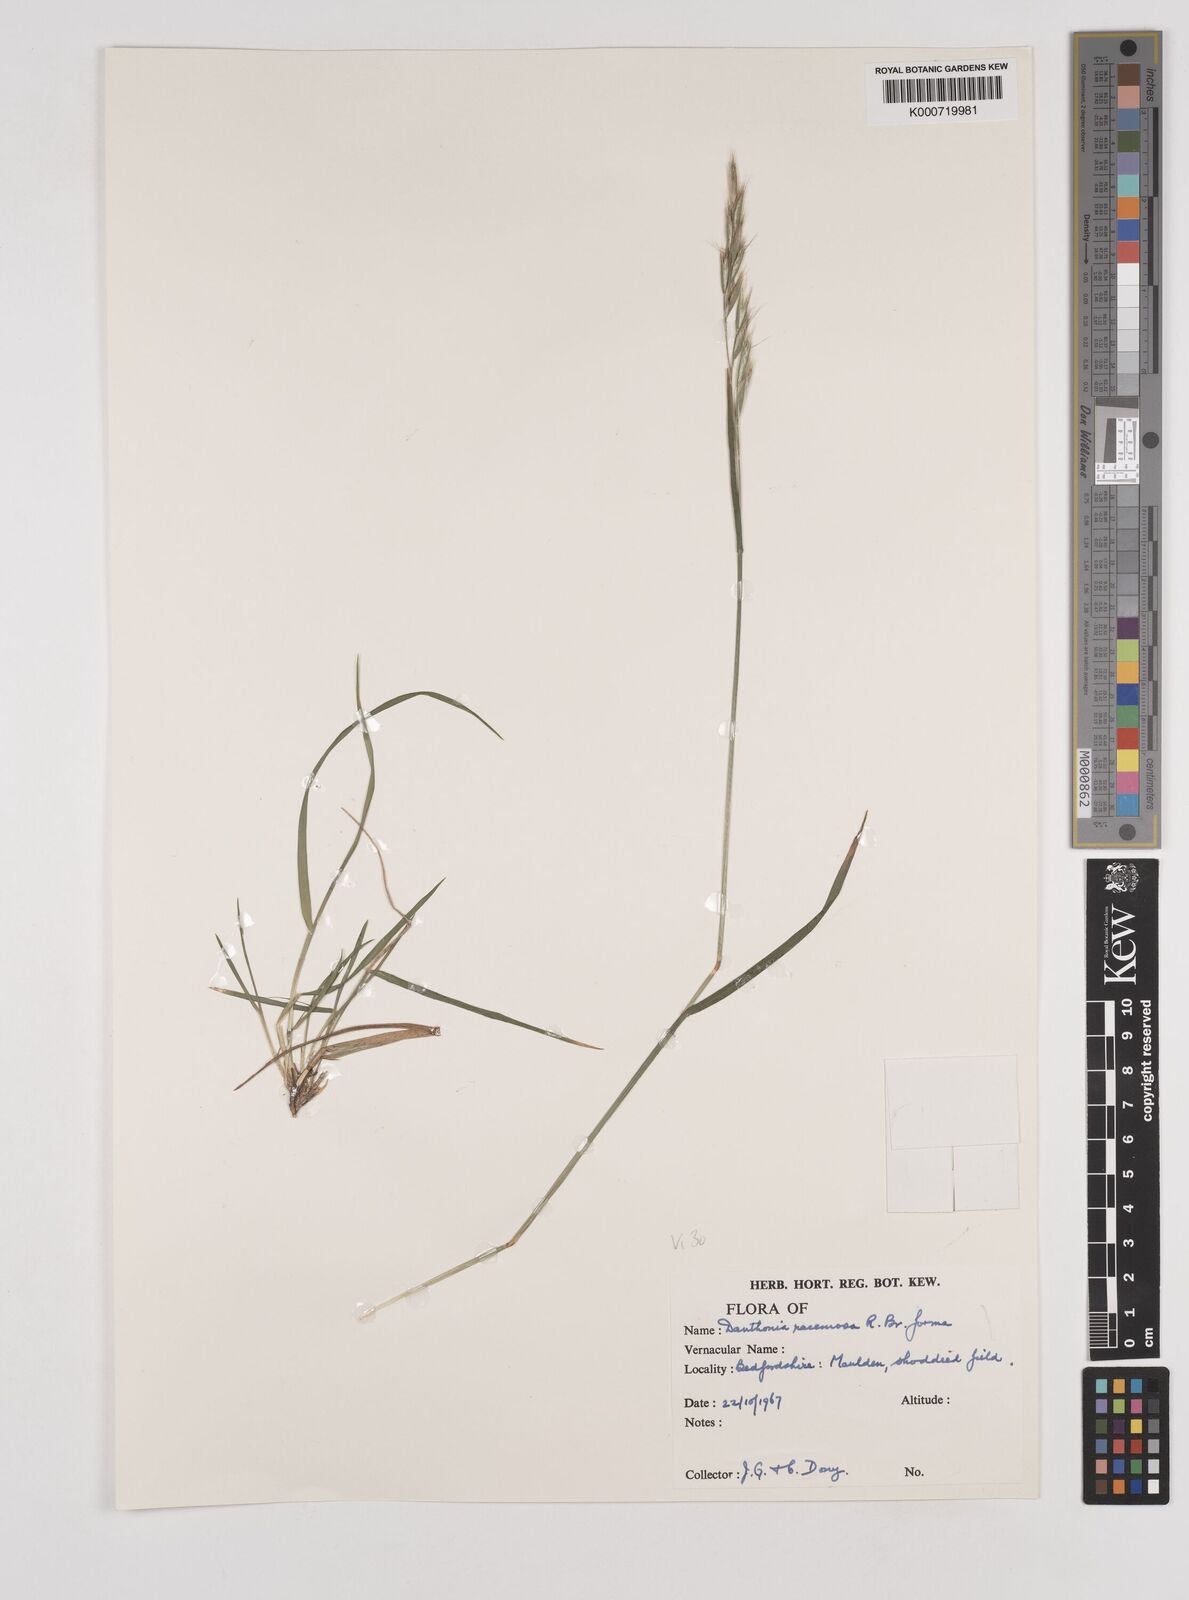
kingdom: Plantae
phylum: Tracheophyta
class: Liliopsida
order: Poales
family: Poaceae
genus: Rytidosperma
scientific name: Rytidosperma racemosum
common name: Wallaby-grass
